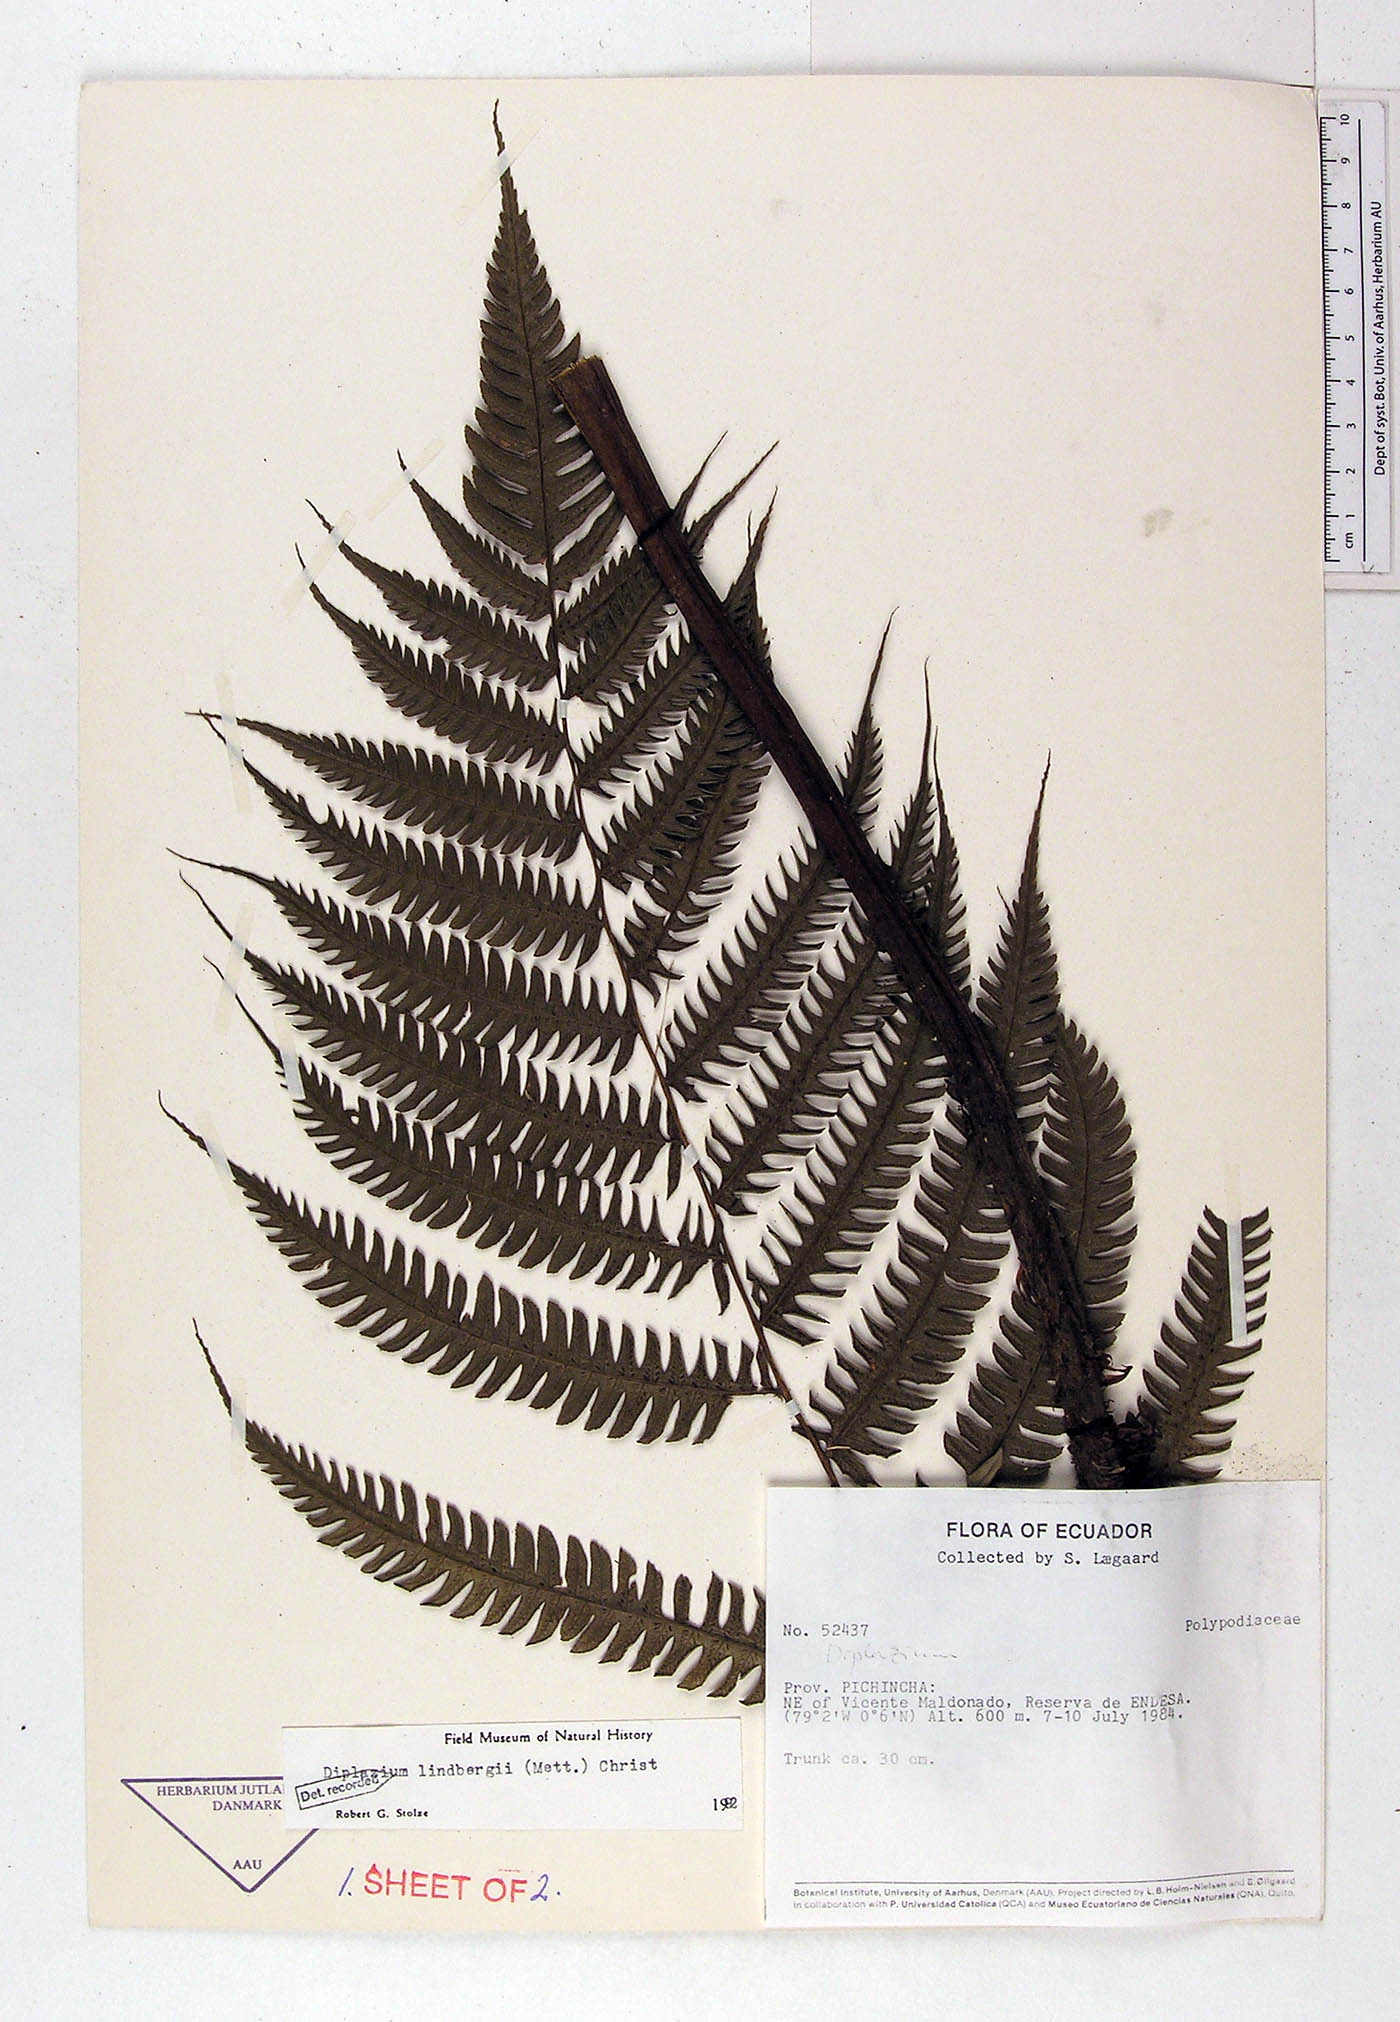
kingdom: Plantae
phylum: Tracheophyta
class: Polypodiopsida
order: Polypodiales
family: Athyriaceae
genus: Diplazium
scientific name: Diplazium lindbergii
